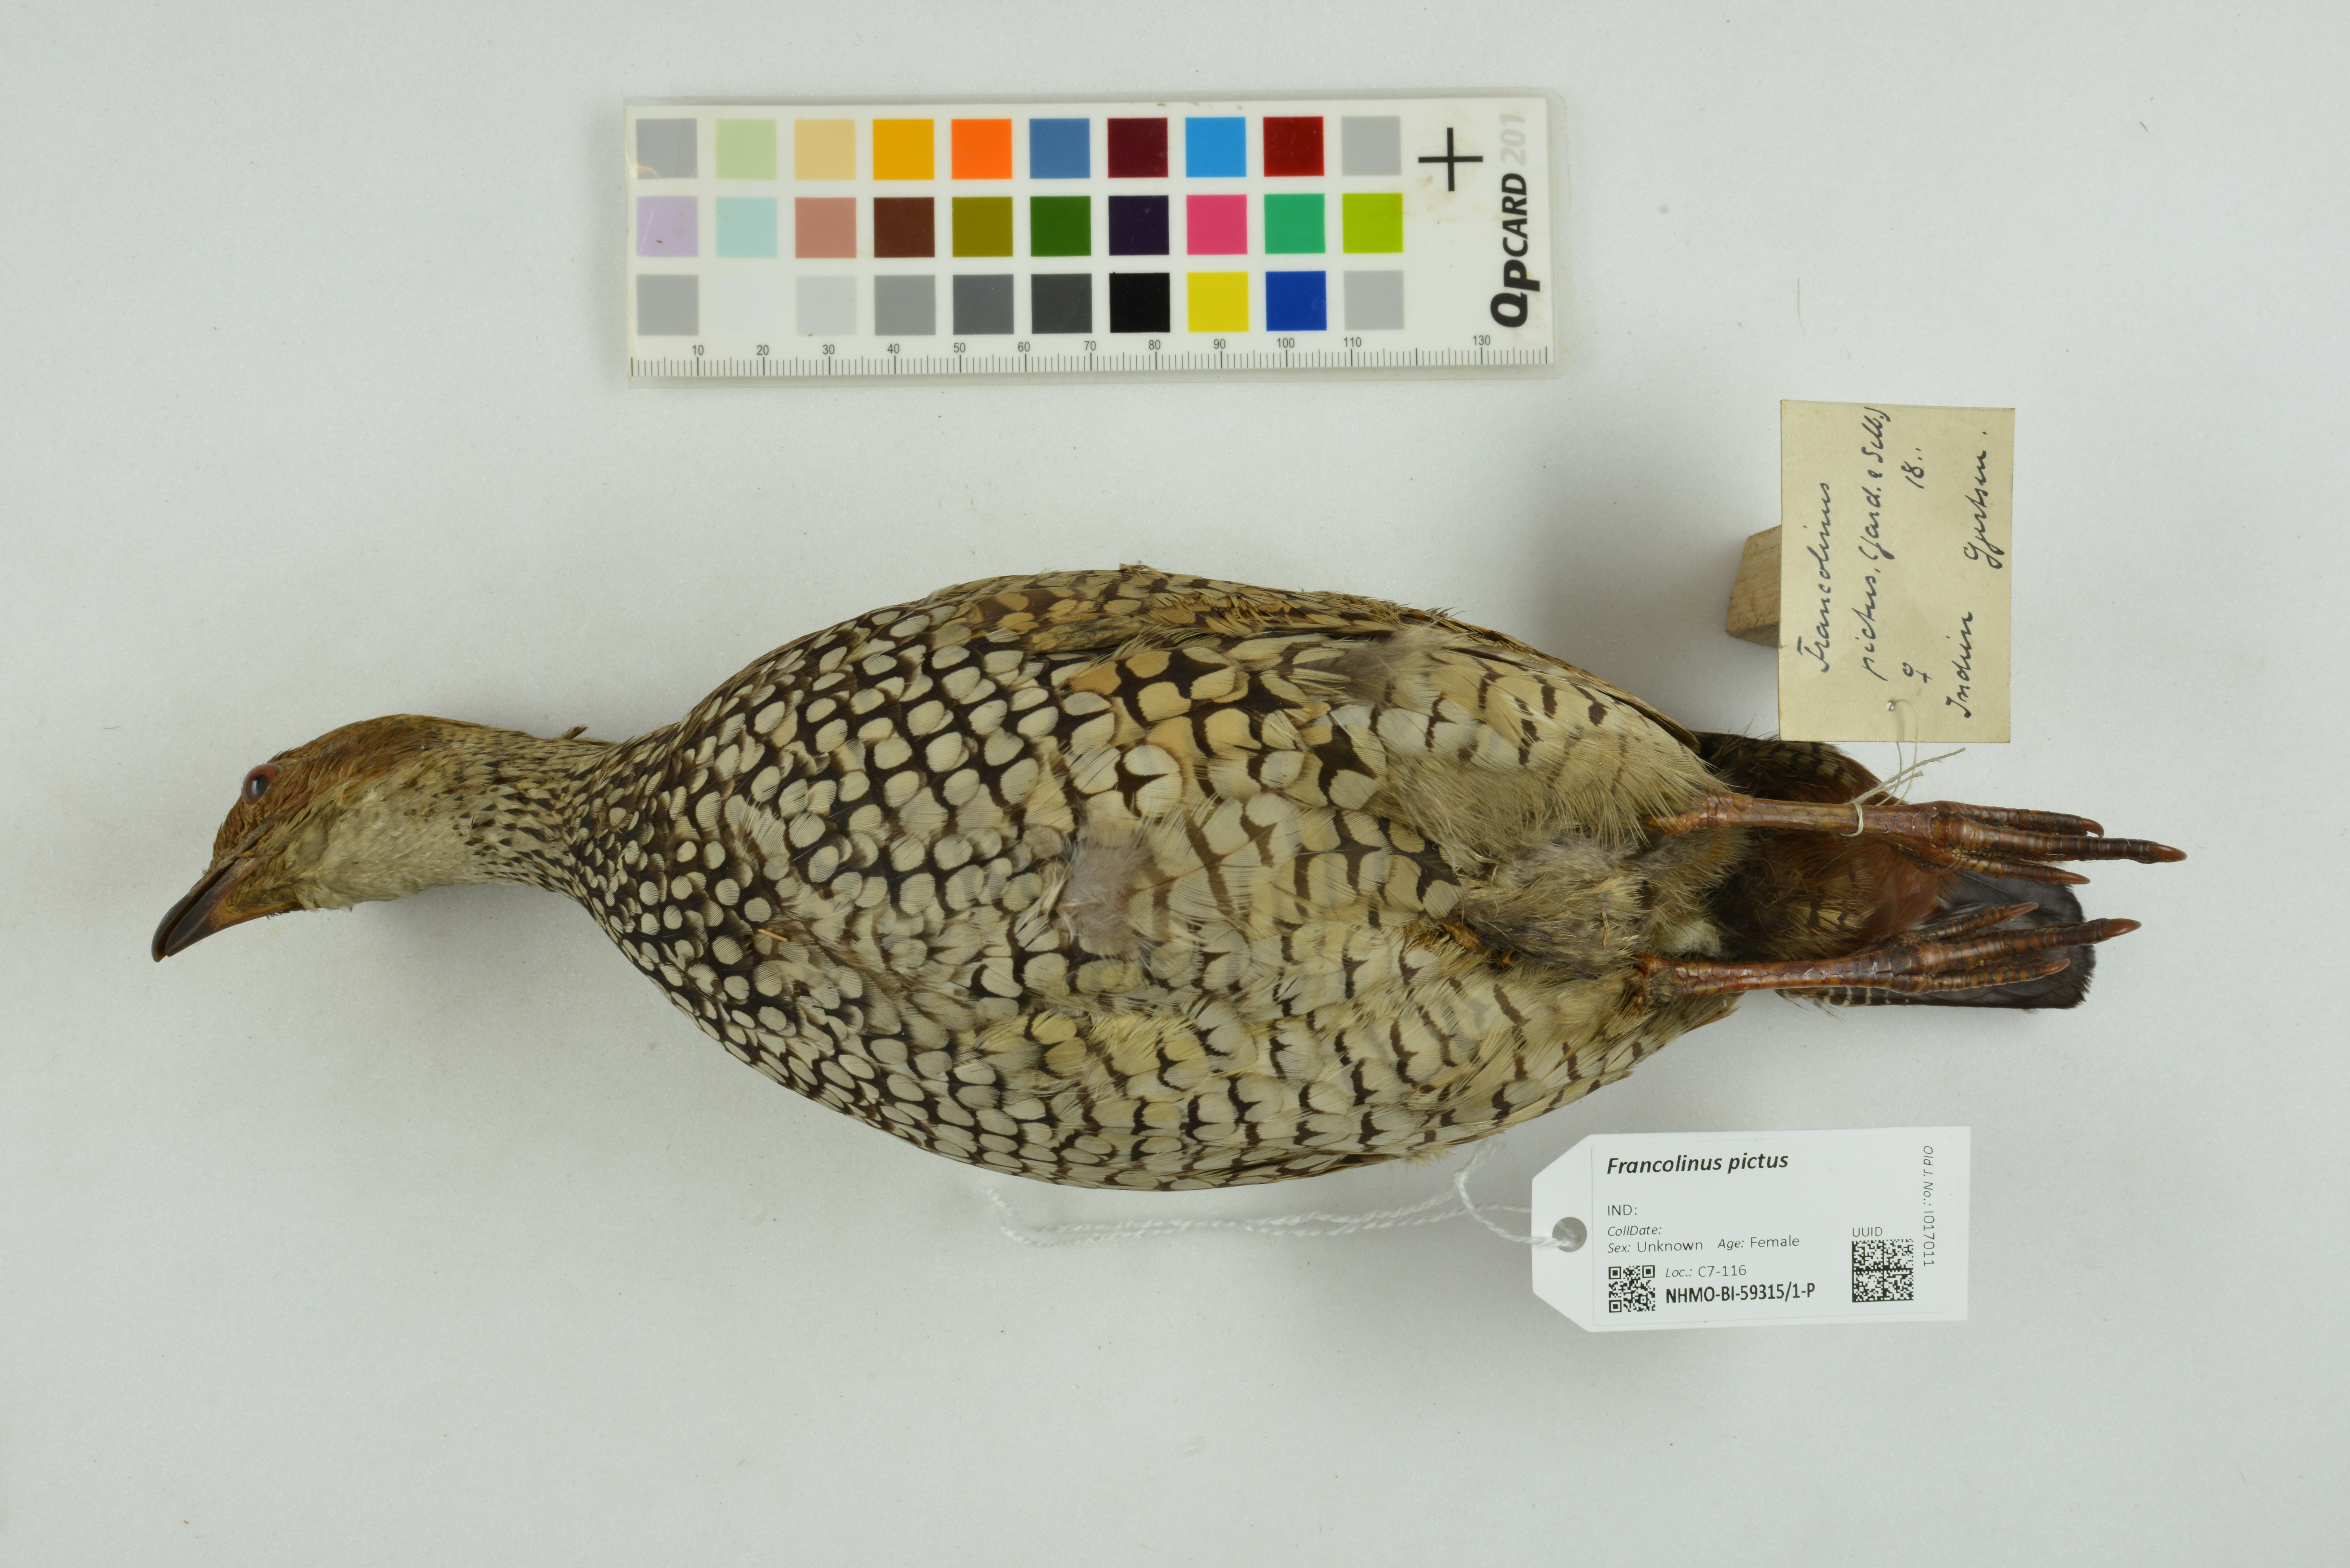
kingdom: Animalia
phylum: Chordata
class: Aves
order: Galliformes
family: Phasianidae
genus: Francolinus
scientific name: Francolinus pictus
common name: Painted francolin
